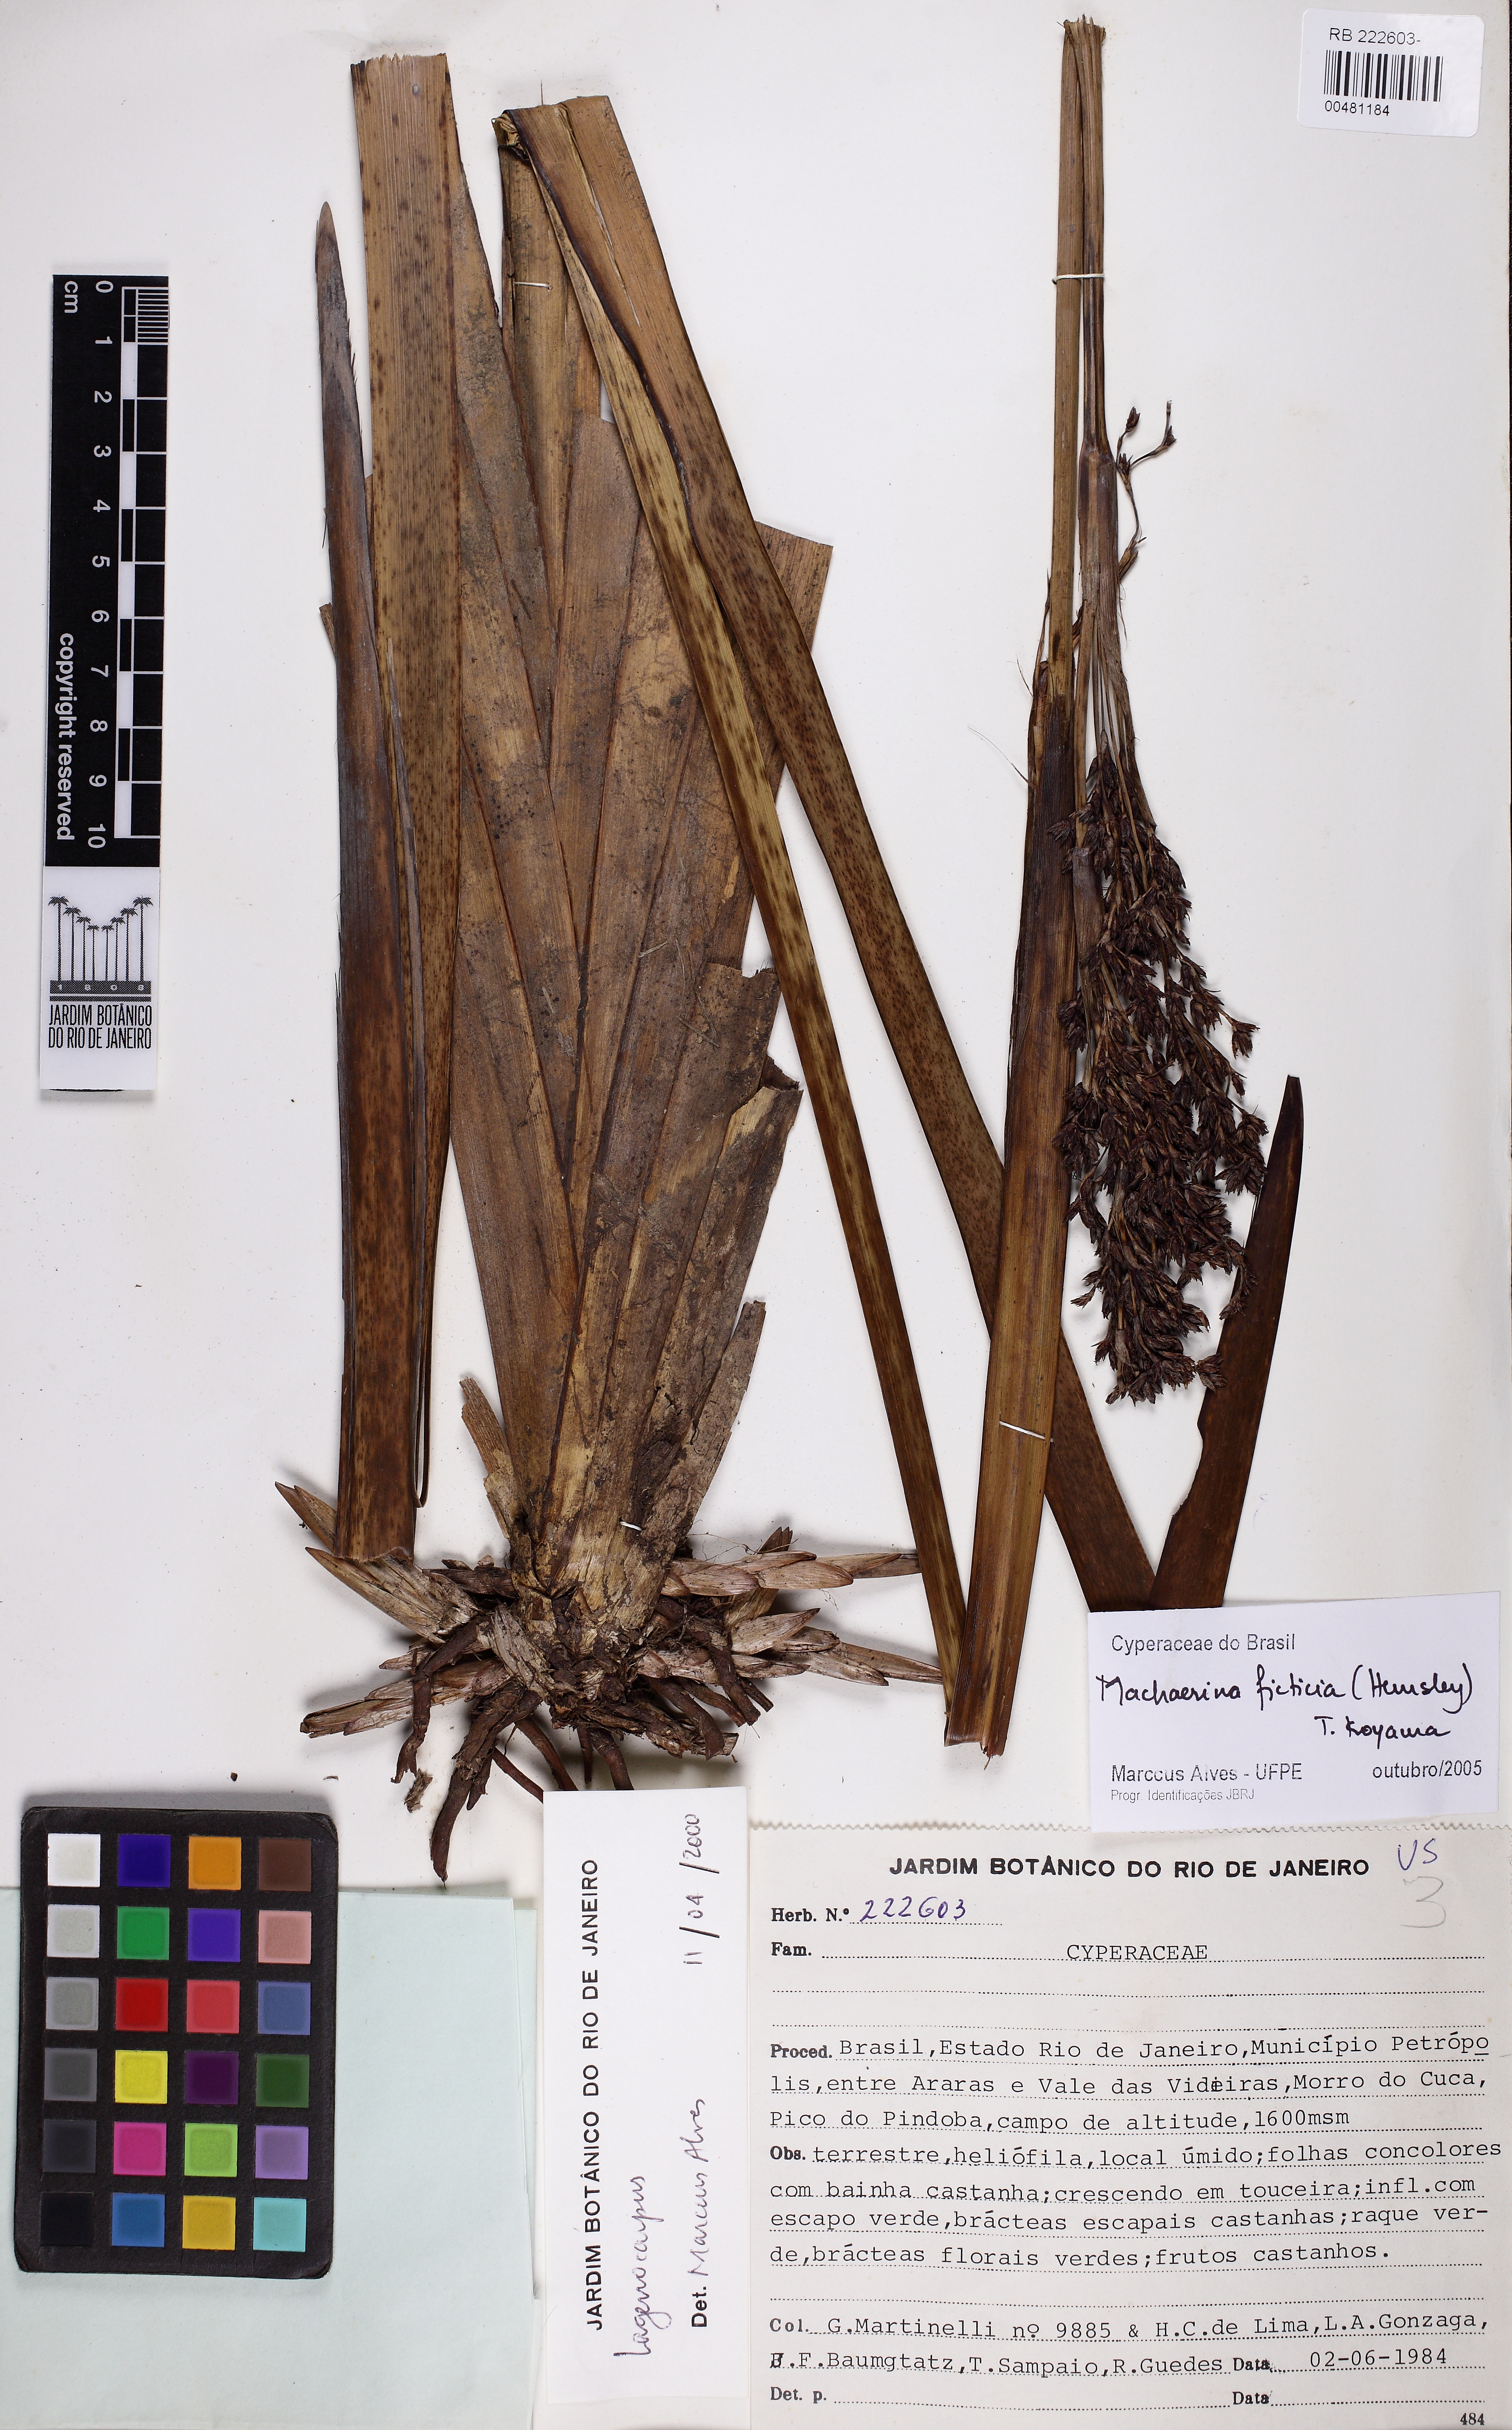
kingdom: Plantae
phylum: Tracheophyta
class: Liliopsida
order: Poales
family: Cyperaceae
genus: Machaerina
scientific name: Machaerina ficticia
